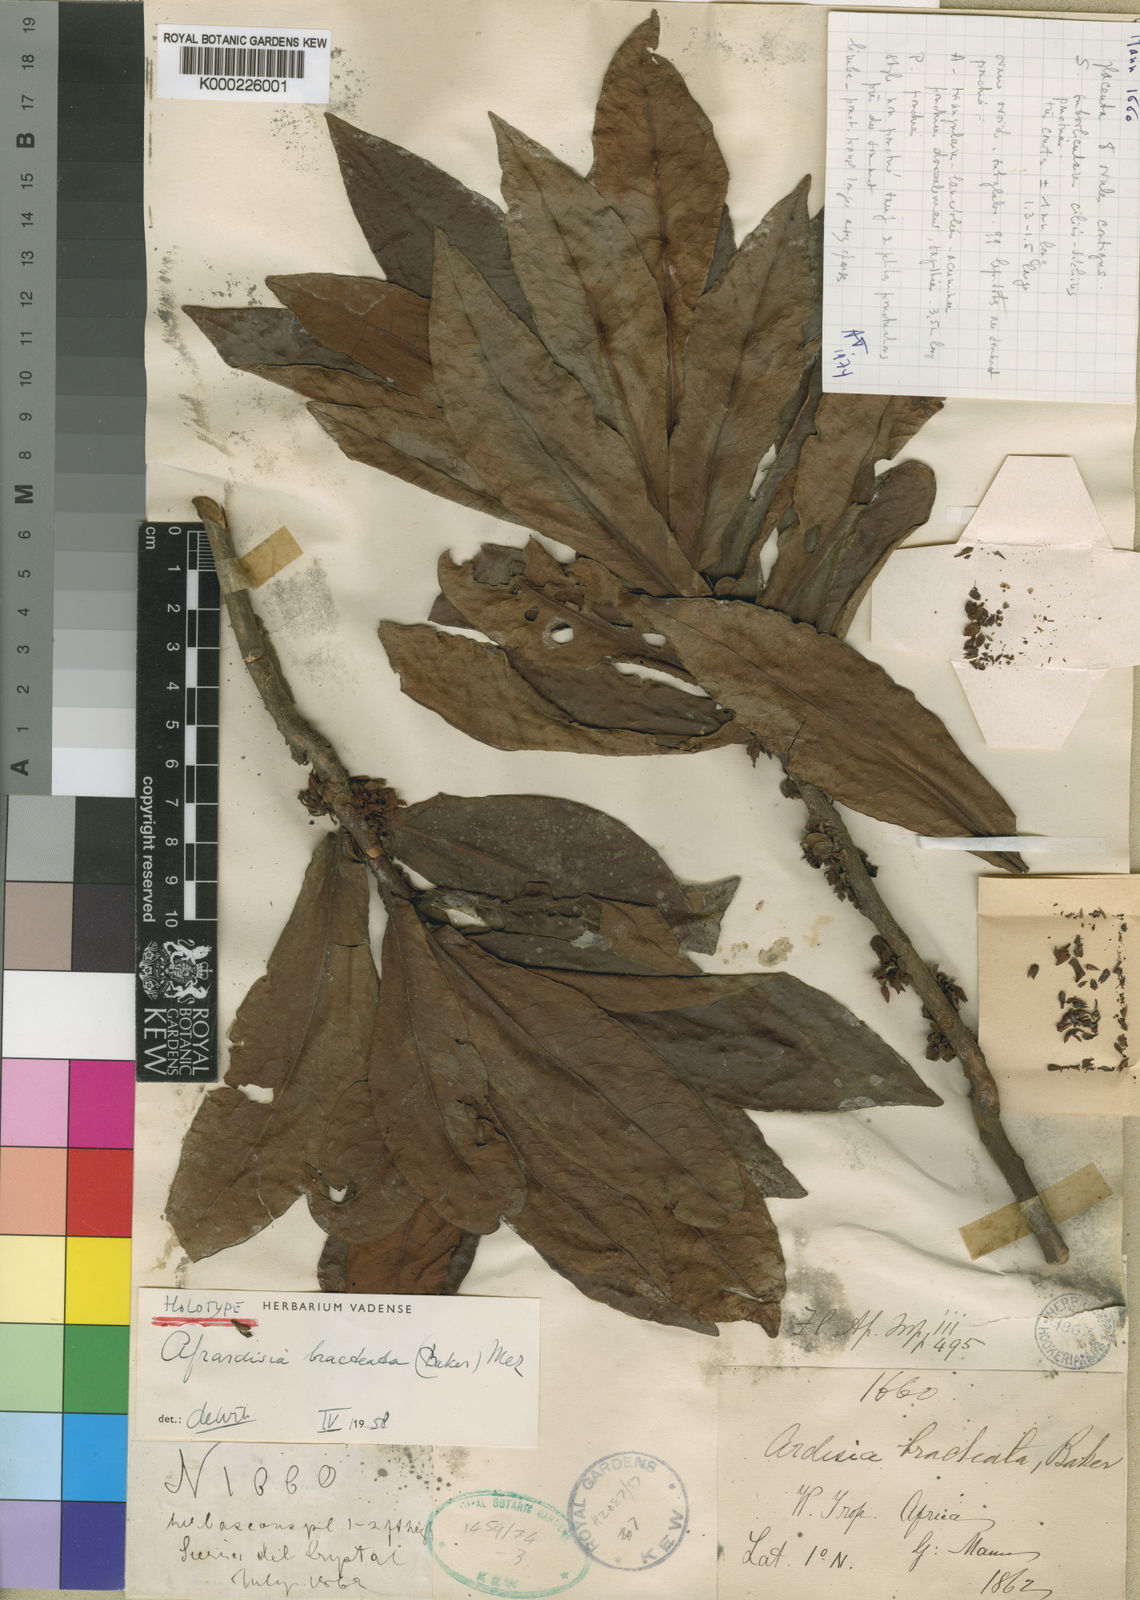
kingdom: Plantae
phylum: Tracheophyta
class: Magnoliopsida
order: Ericales
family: Primulaceae
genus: Ardisia
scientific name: Ardisia bracteata
